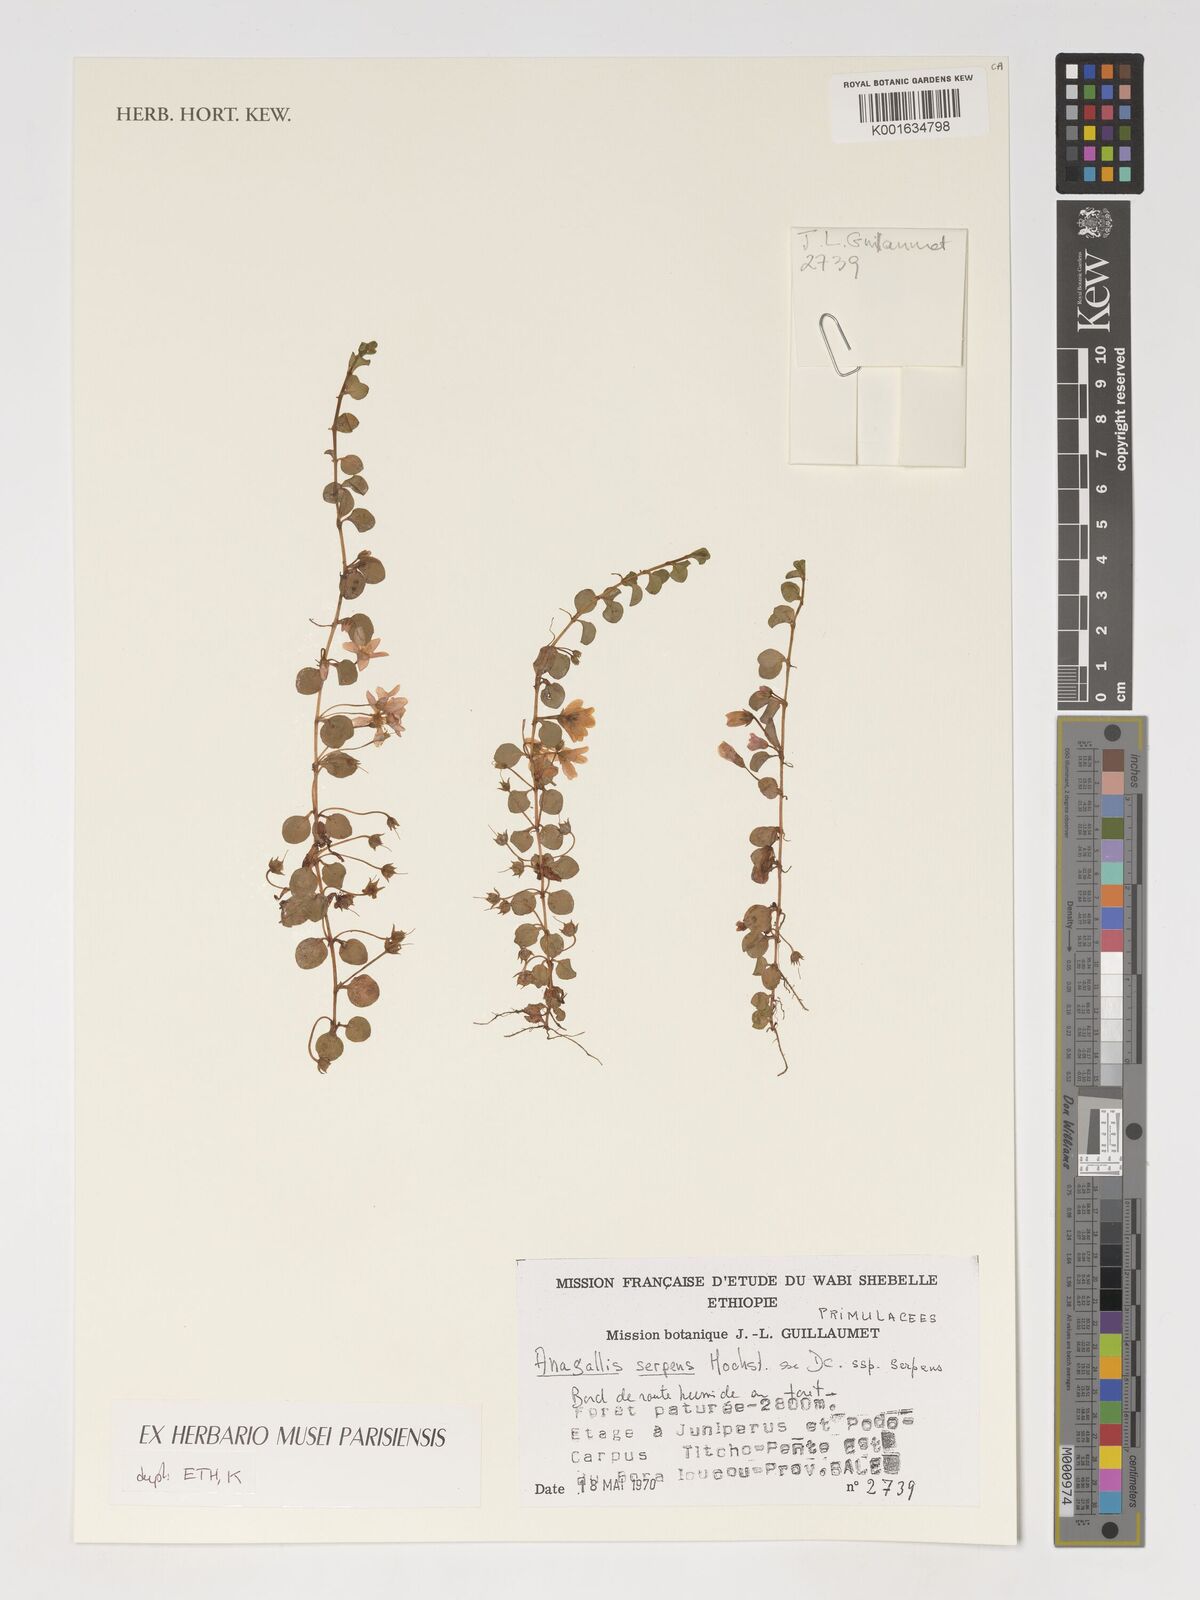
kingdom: Plantae
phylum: Tracheophyta
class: Magnoliopsida
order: Ericales
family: Primulaceae
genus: Lysimachia
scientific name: Lysimachia serpens
